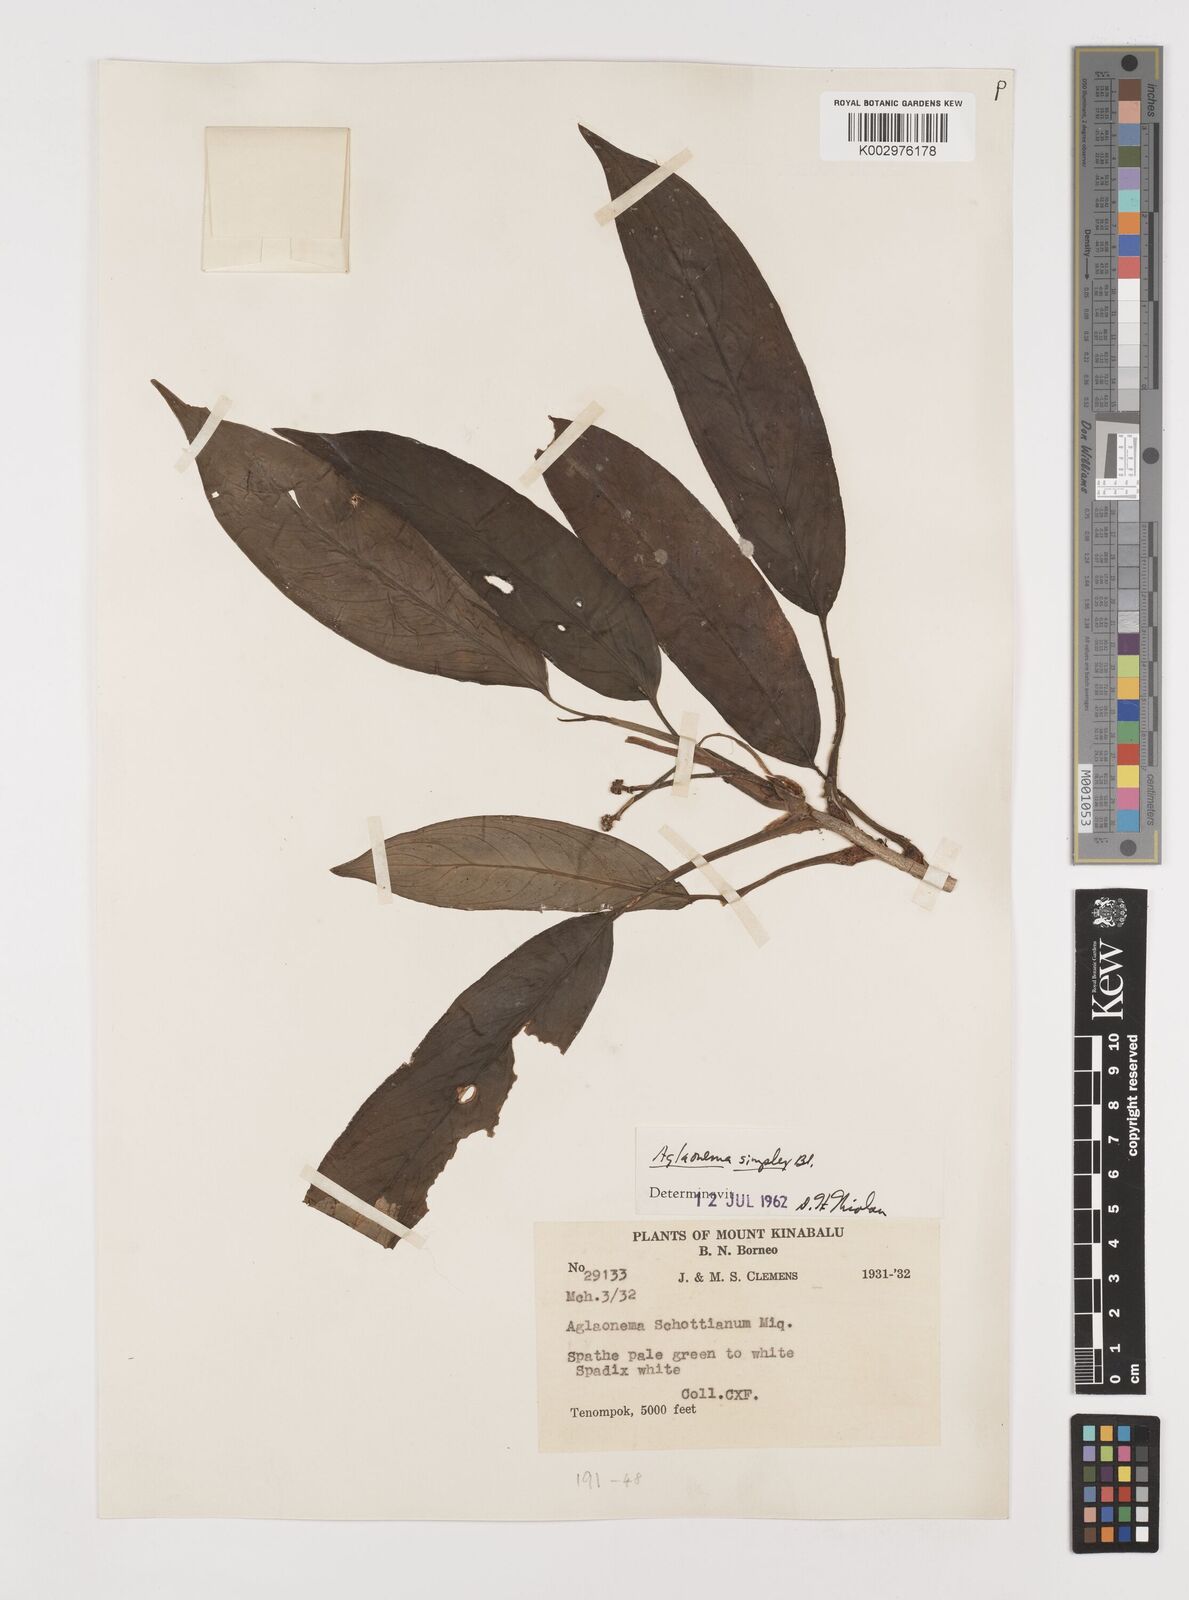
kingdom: Plantae
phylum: Tracheophyta
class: Liliopsida
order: Alismatales
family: Araceae
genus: Aglaonema
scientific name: Aglaonema simplex
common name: Malayan-sword
